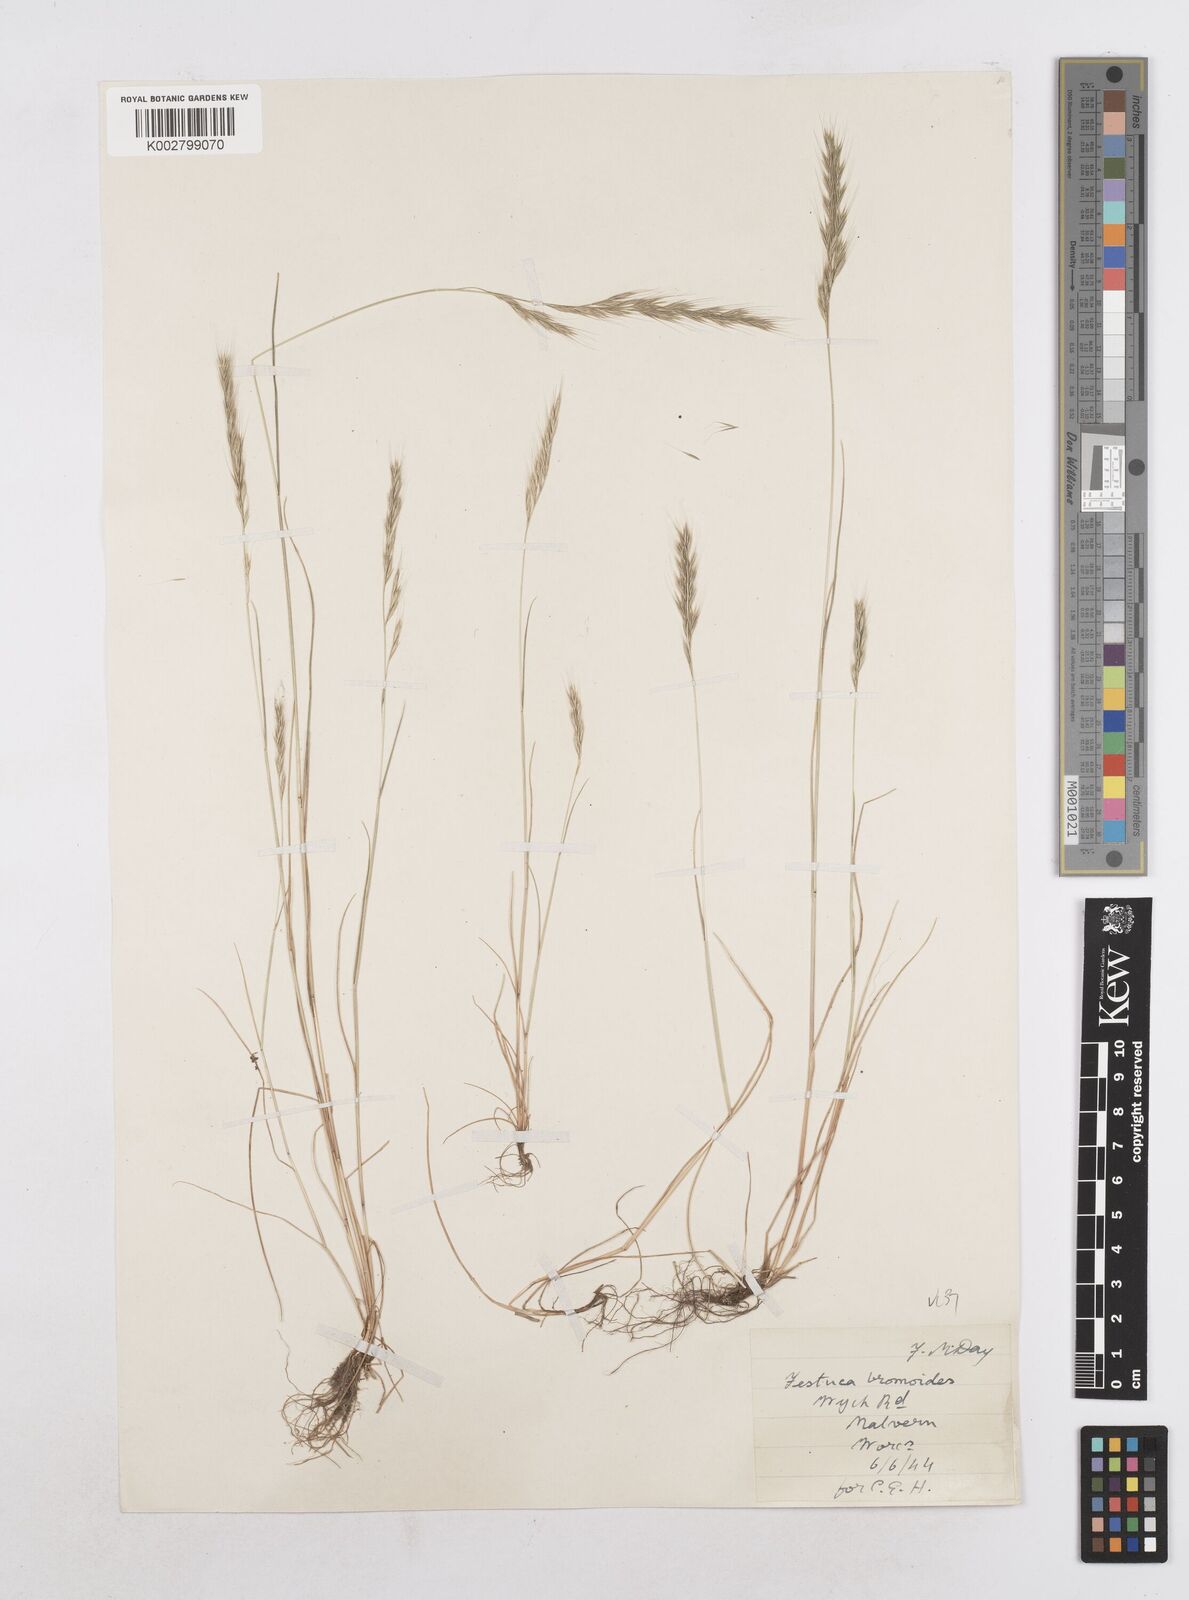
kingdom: Plantae
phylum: Tracheophyta
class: Liliopsida
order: Poales
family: Poaceae
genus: Festuca
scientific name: Festuca bromoides
